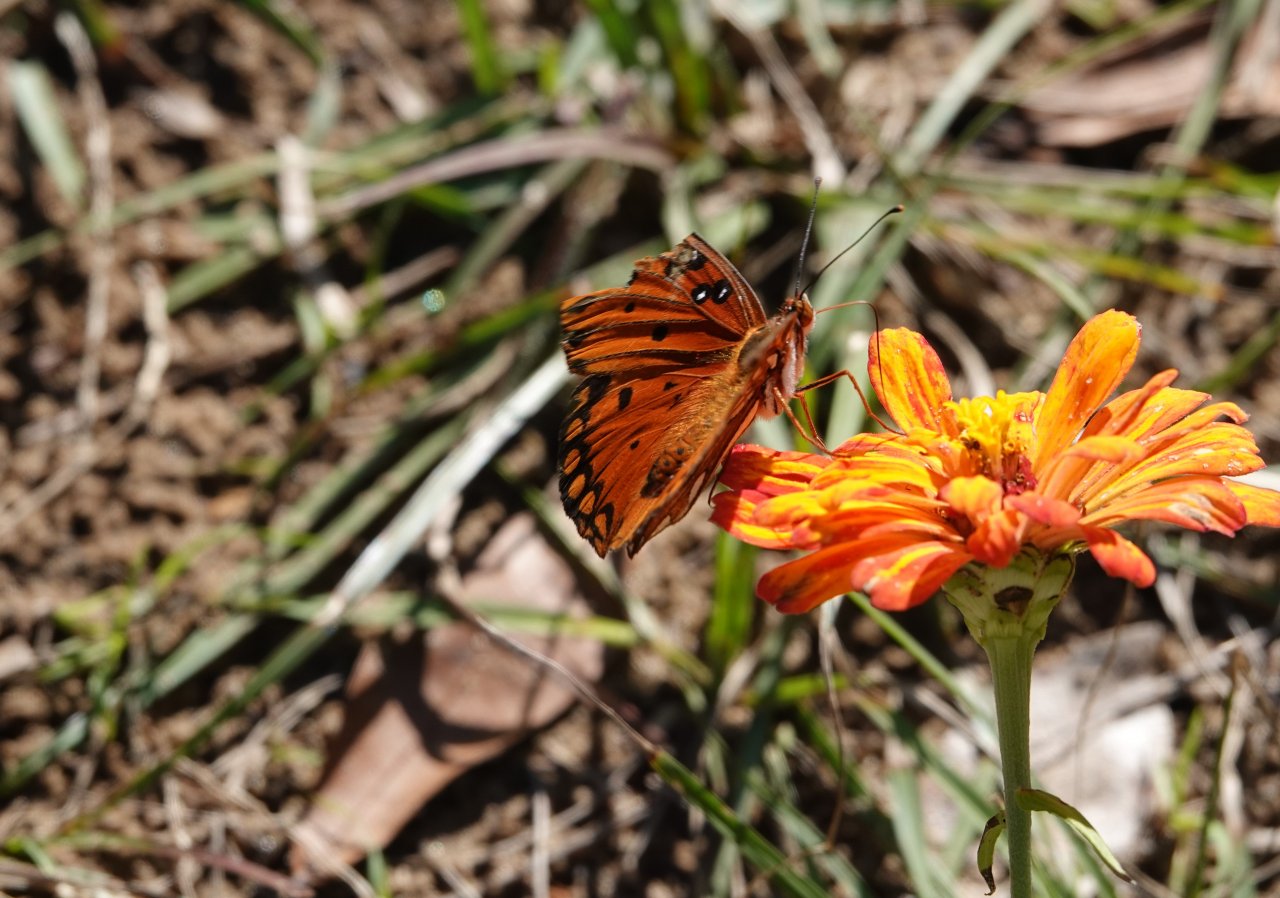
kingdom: Animalia
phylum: Arthropoda
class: Insecta
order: Lepidoptera
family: Nymphalidae
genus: Dione
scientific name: Dione vanillae
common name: Gulf Fritillary
